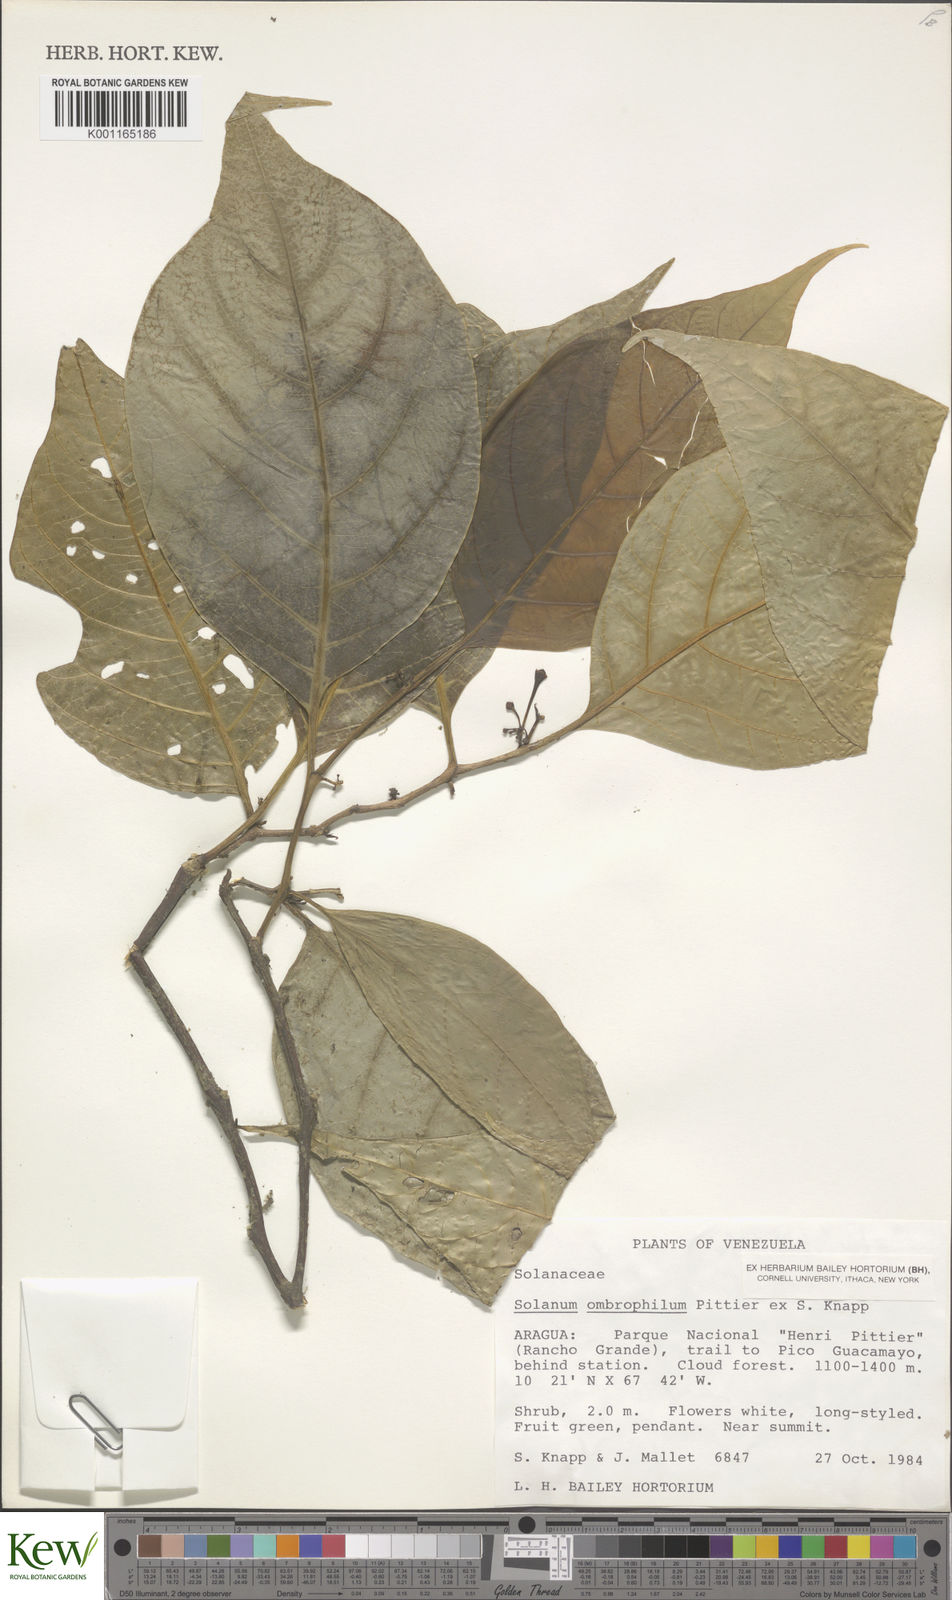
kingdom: Plantae
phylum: Tracheophyta
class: Magnoliopsida
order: Solanales
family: Solanaceae
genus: Solanum
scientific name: Solanum ombrophilum
